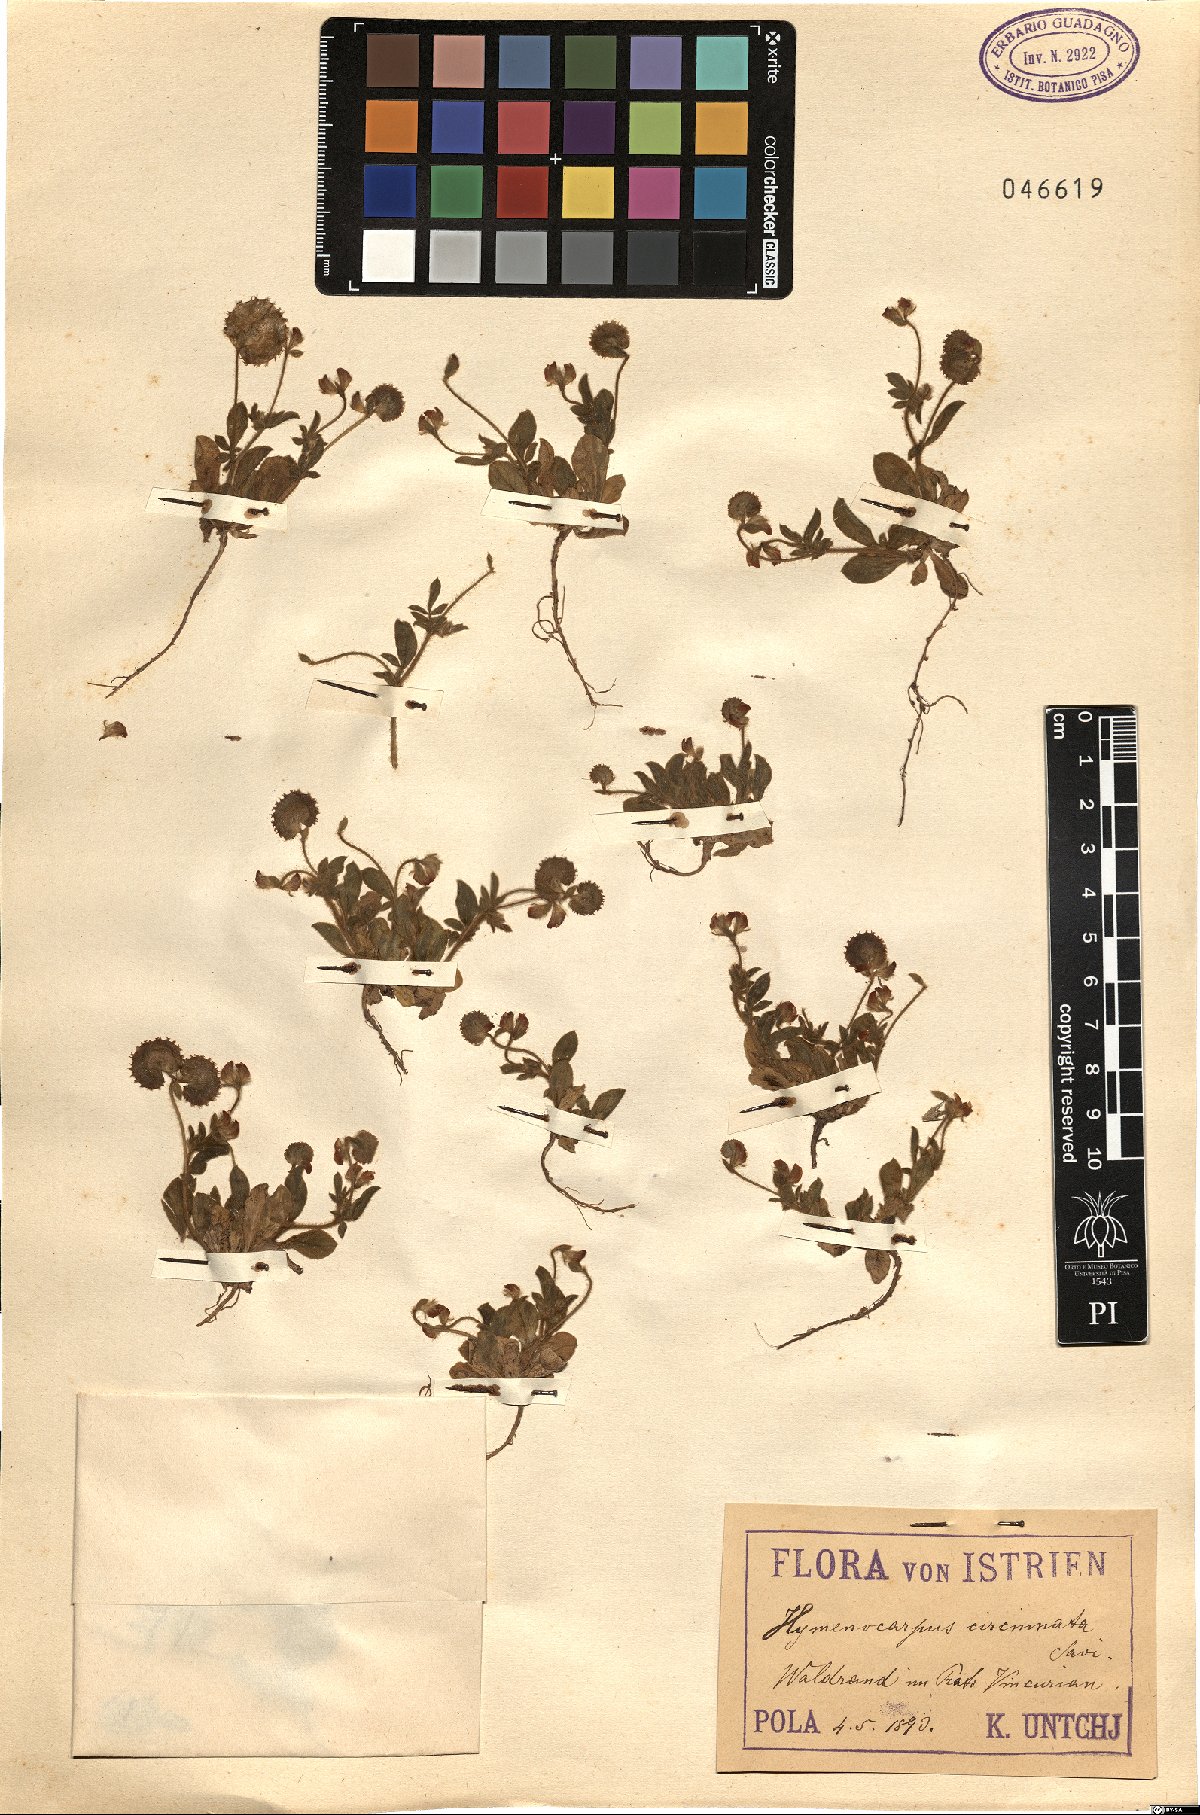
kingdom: Plantae
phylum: Tracheophyta
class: Magnoliopsida
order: Fabales
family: Fabaceae
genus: Anthyllis
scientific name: Anthyllis circinnata
